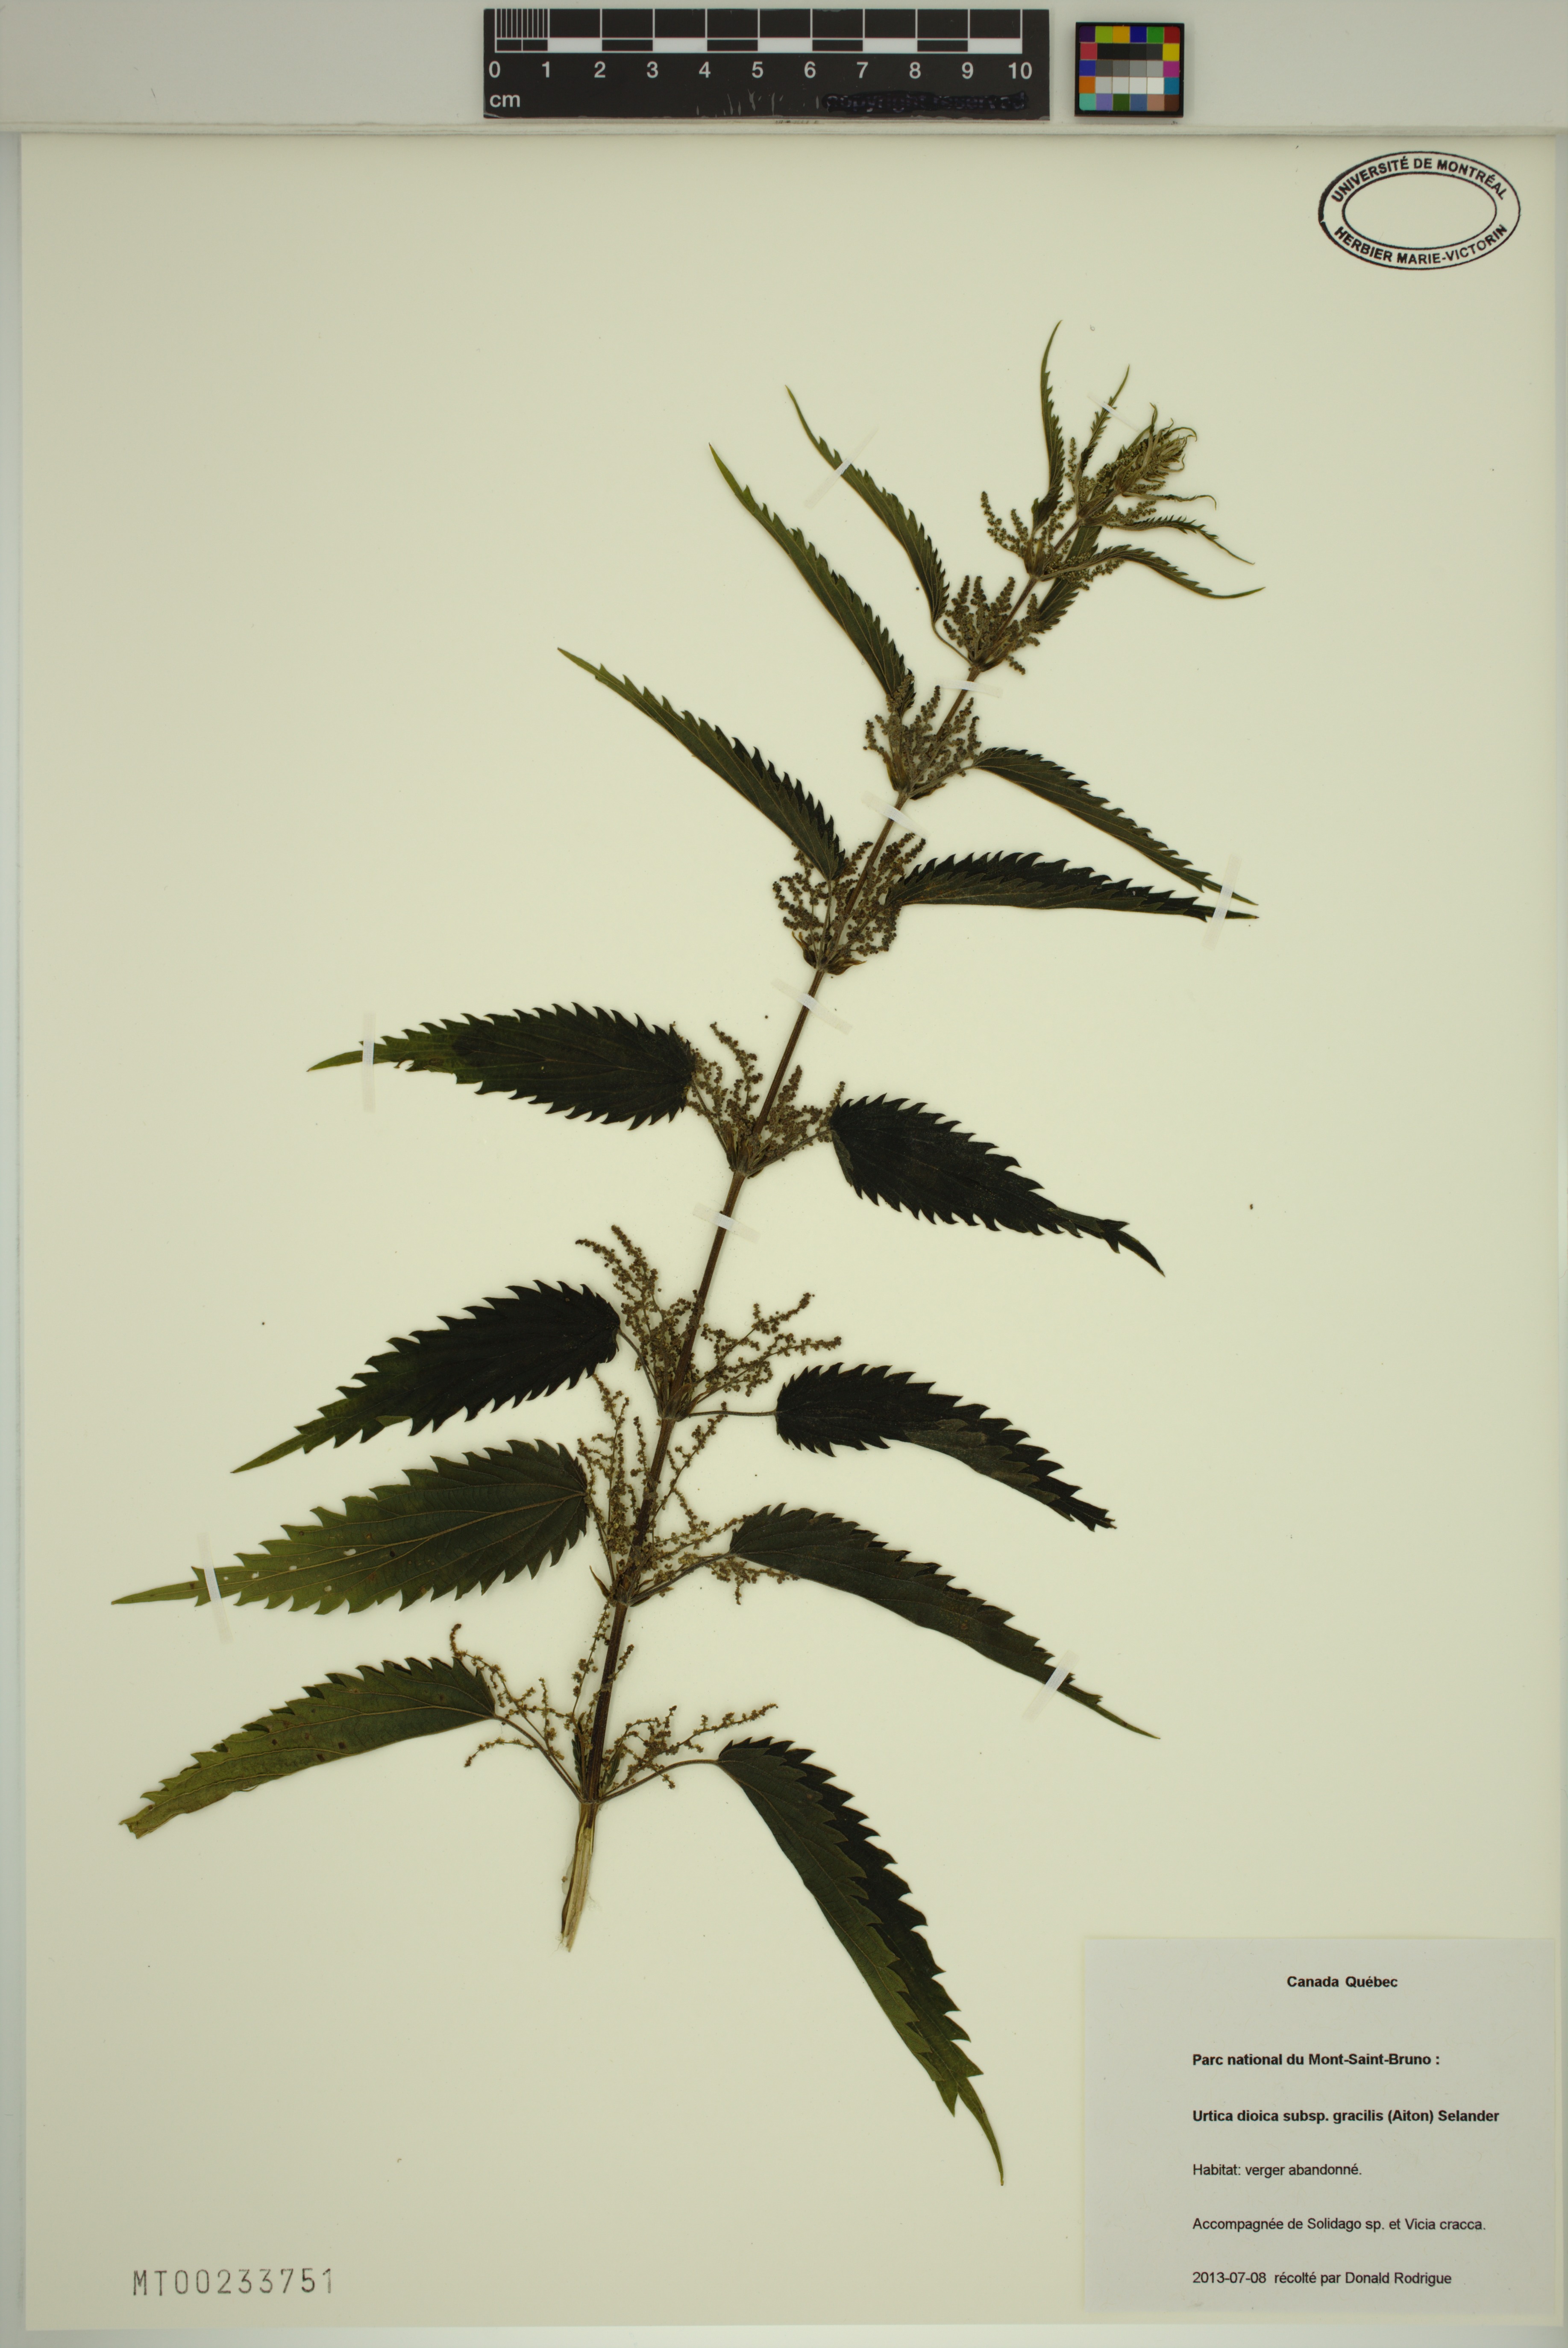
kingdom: Plantae
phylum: Tracheophyta
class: Magnoliopsida
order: Rosales
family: Urticaceae
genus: Urtica
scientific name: Urtica gracilis
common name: Slender stinging nettle
